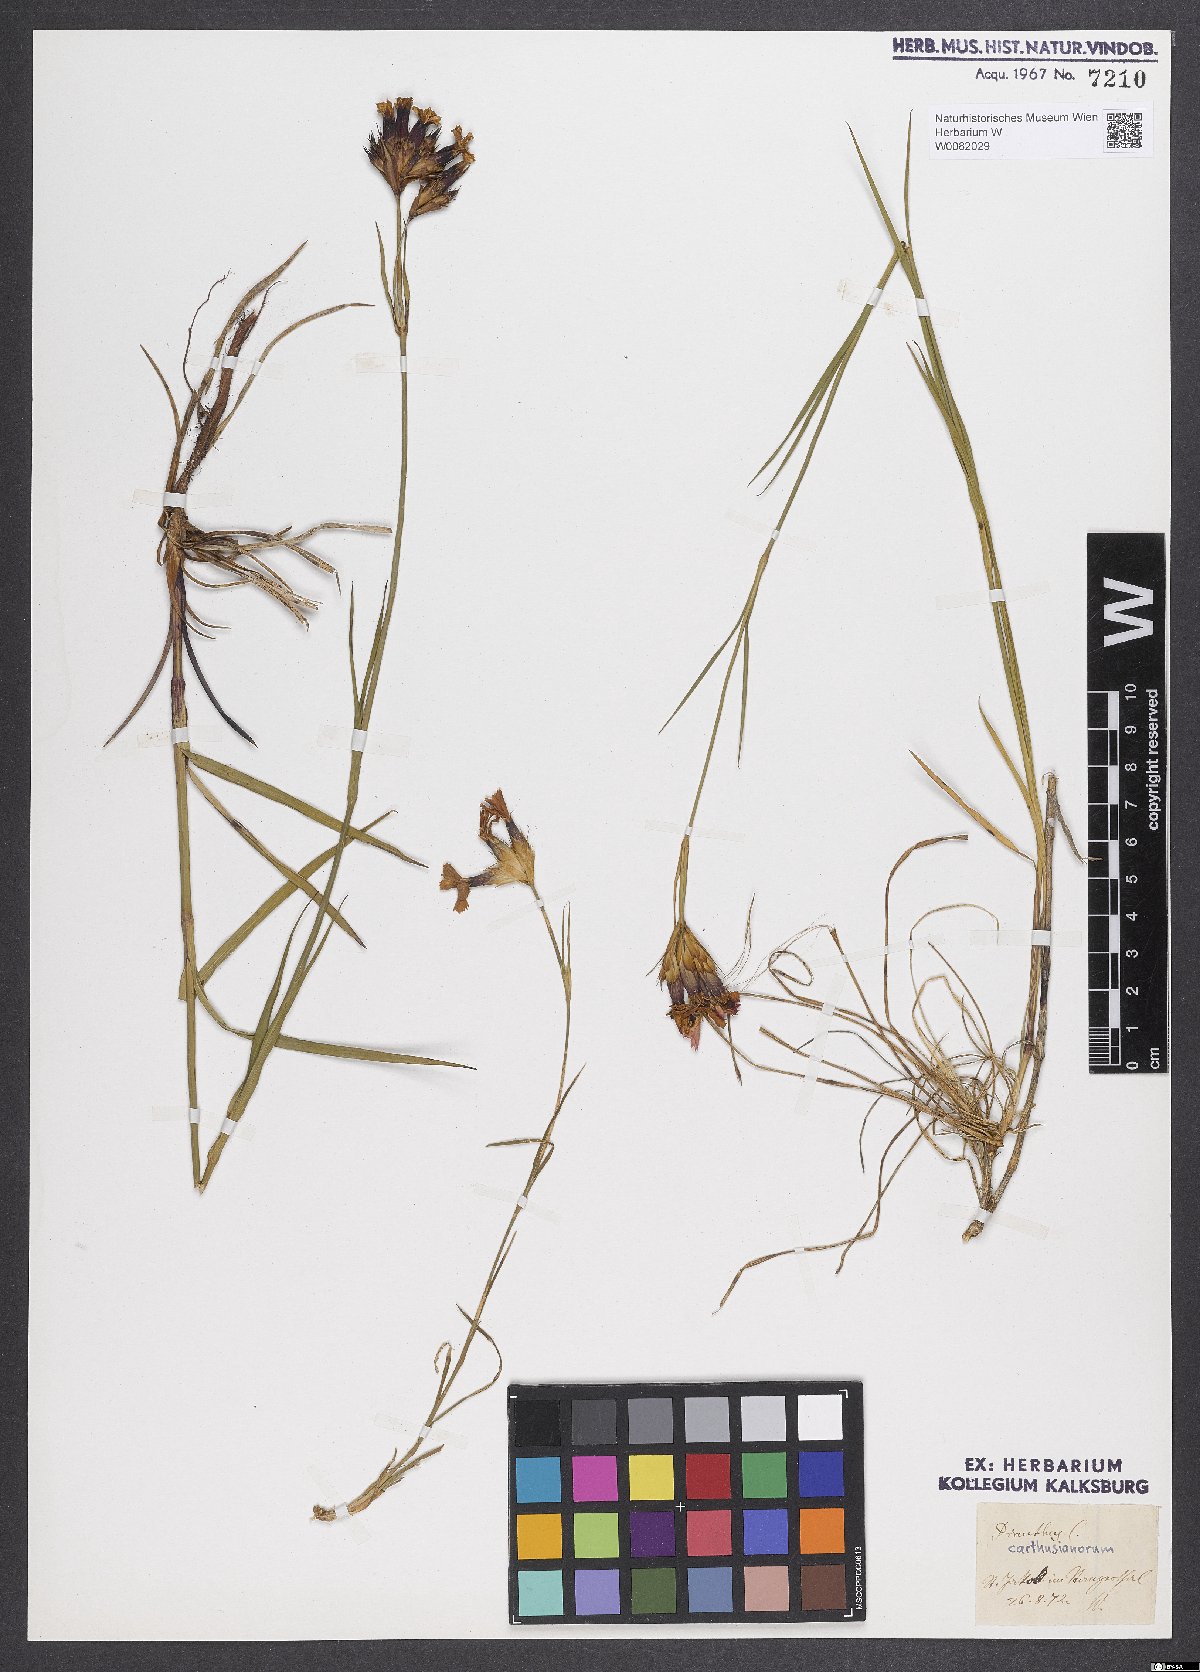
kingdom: Plantae
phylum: Tracheophyta
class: Magnoliopsida
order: Caryophyllales
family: Caryophyllaceae
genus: Dianthus
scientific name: Dianthus carthusianorum
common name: Carthusian pink
